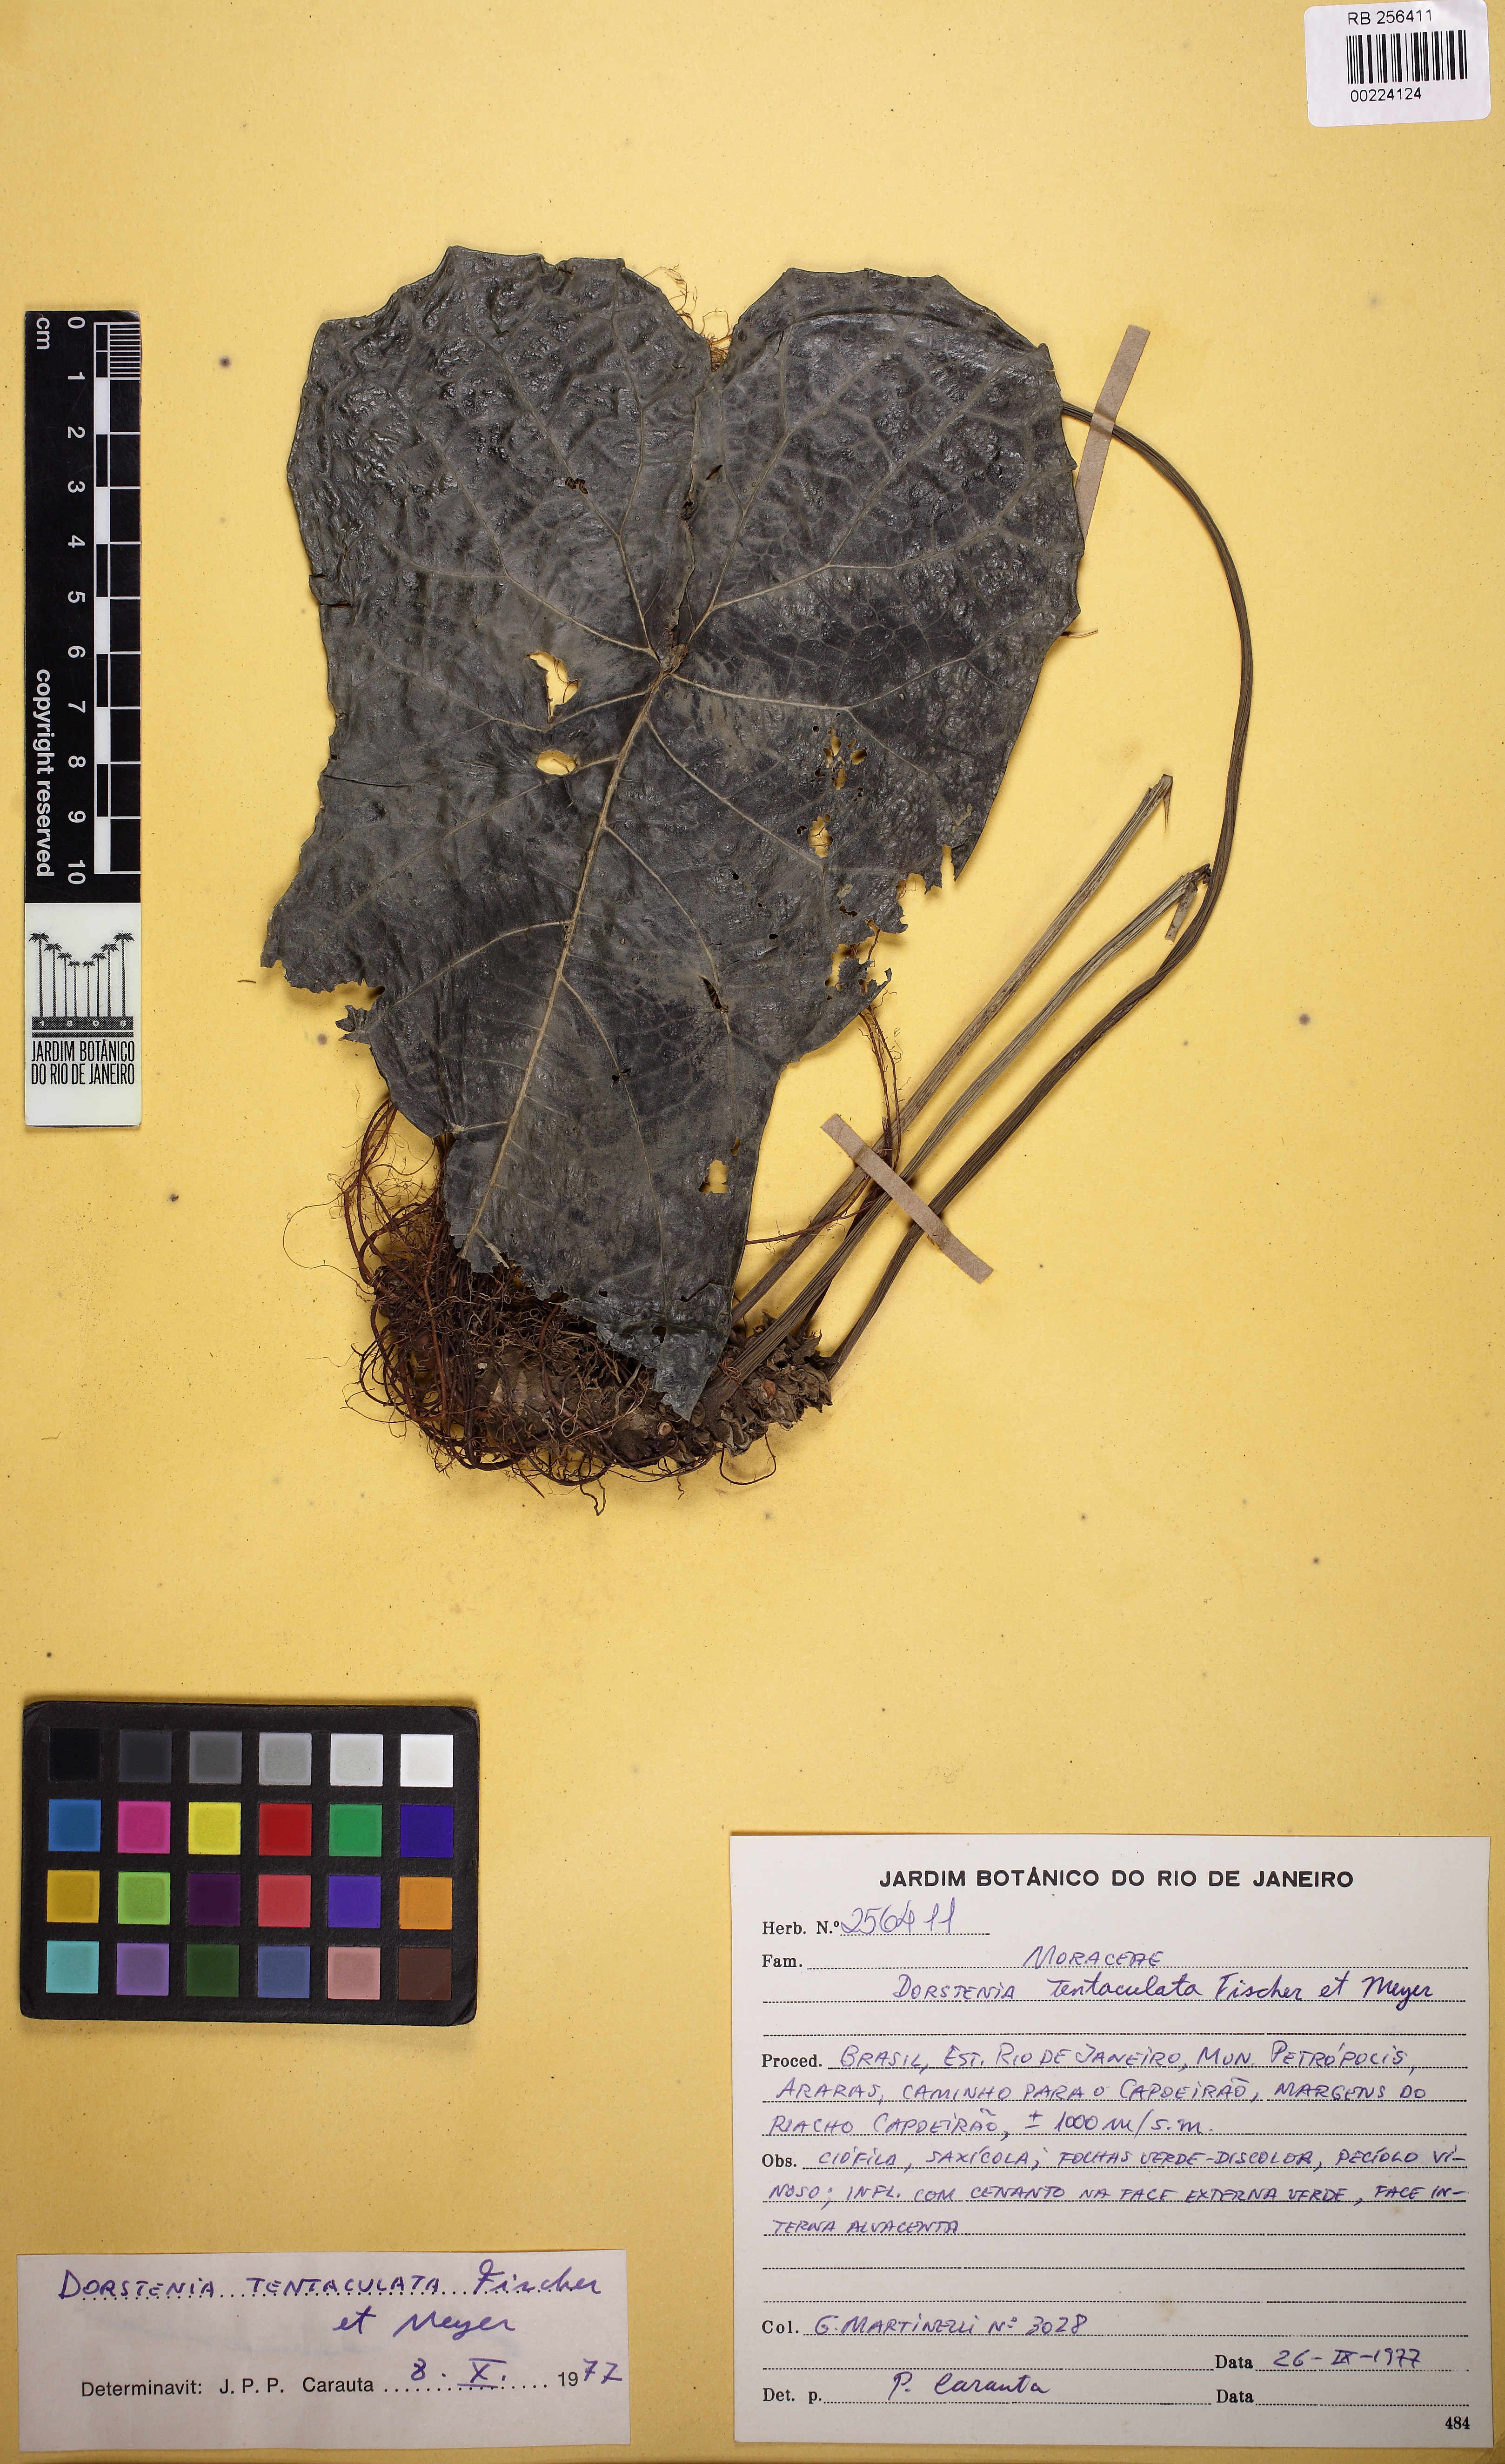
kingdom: Plantae
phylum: Tracheophyta
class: Magnoliopsida
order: Rosales
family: Moraceae
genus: Dorstenia
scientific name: Dorstenia arifolia
